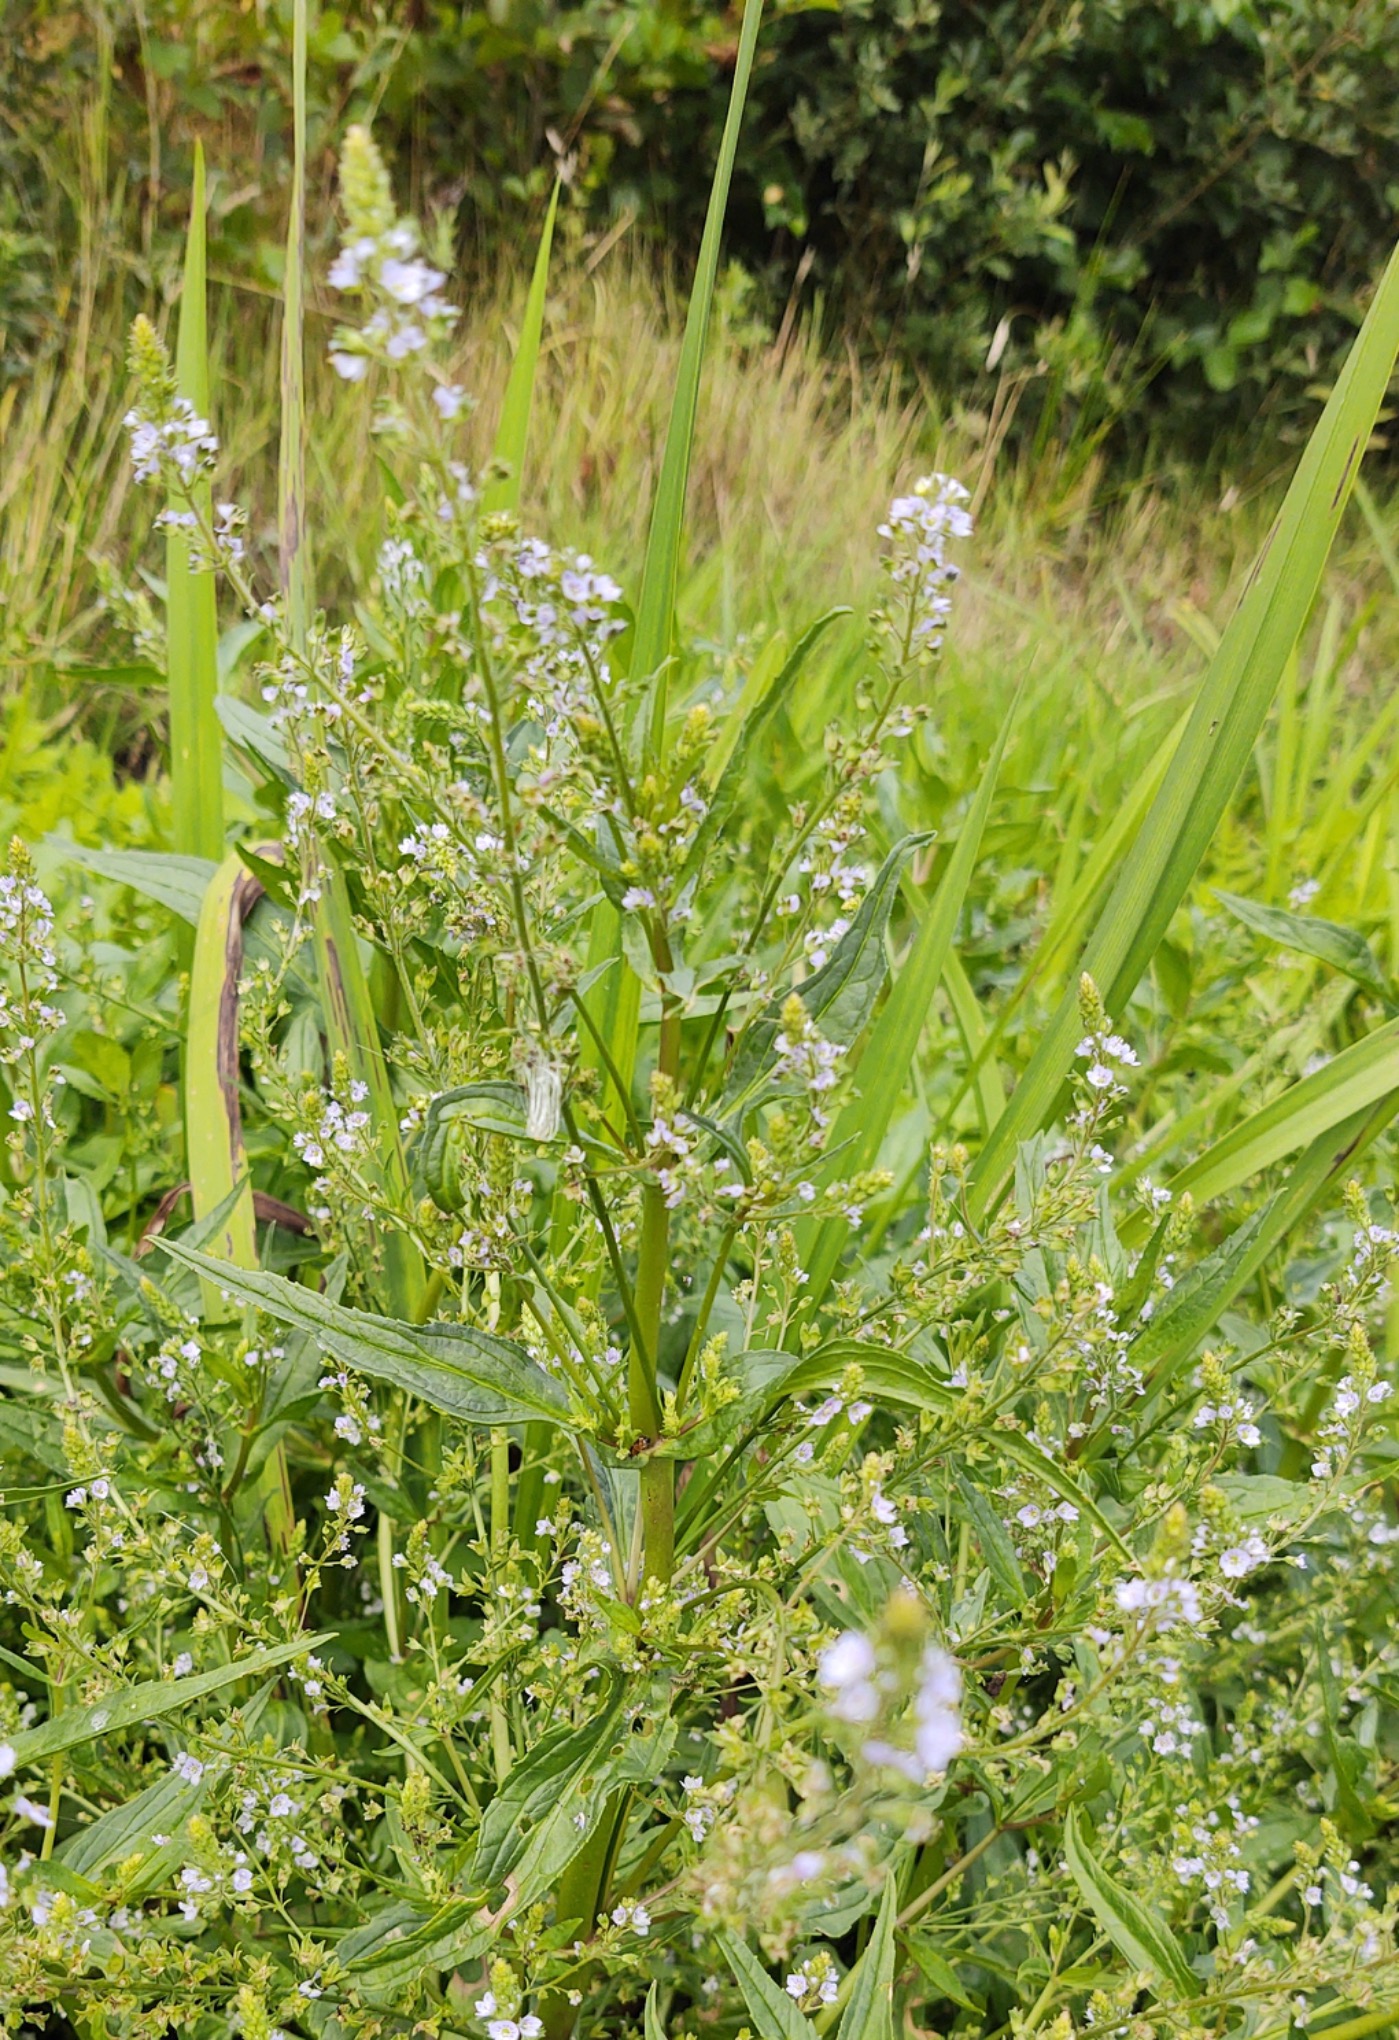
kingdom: Plantae
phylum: Tracheophyta
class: Magnoliopsida
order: Lamiales
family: Plantaginaceae
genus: Veronica
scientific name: Veronica anagallis-aquatica
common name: Lancetbladet ærenpris
